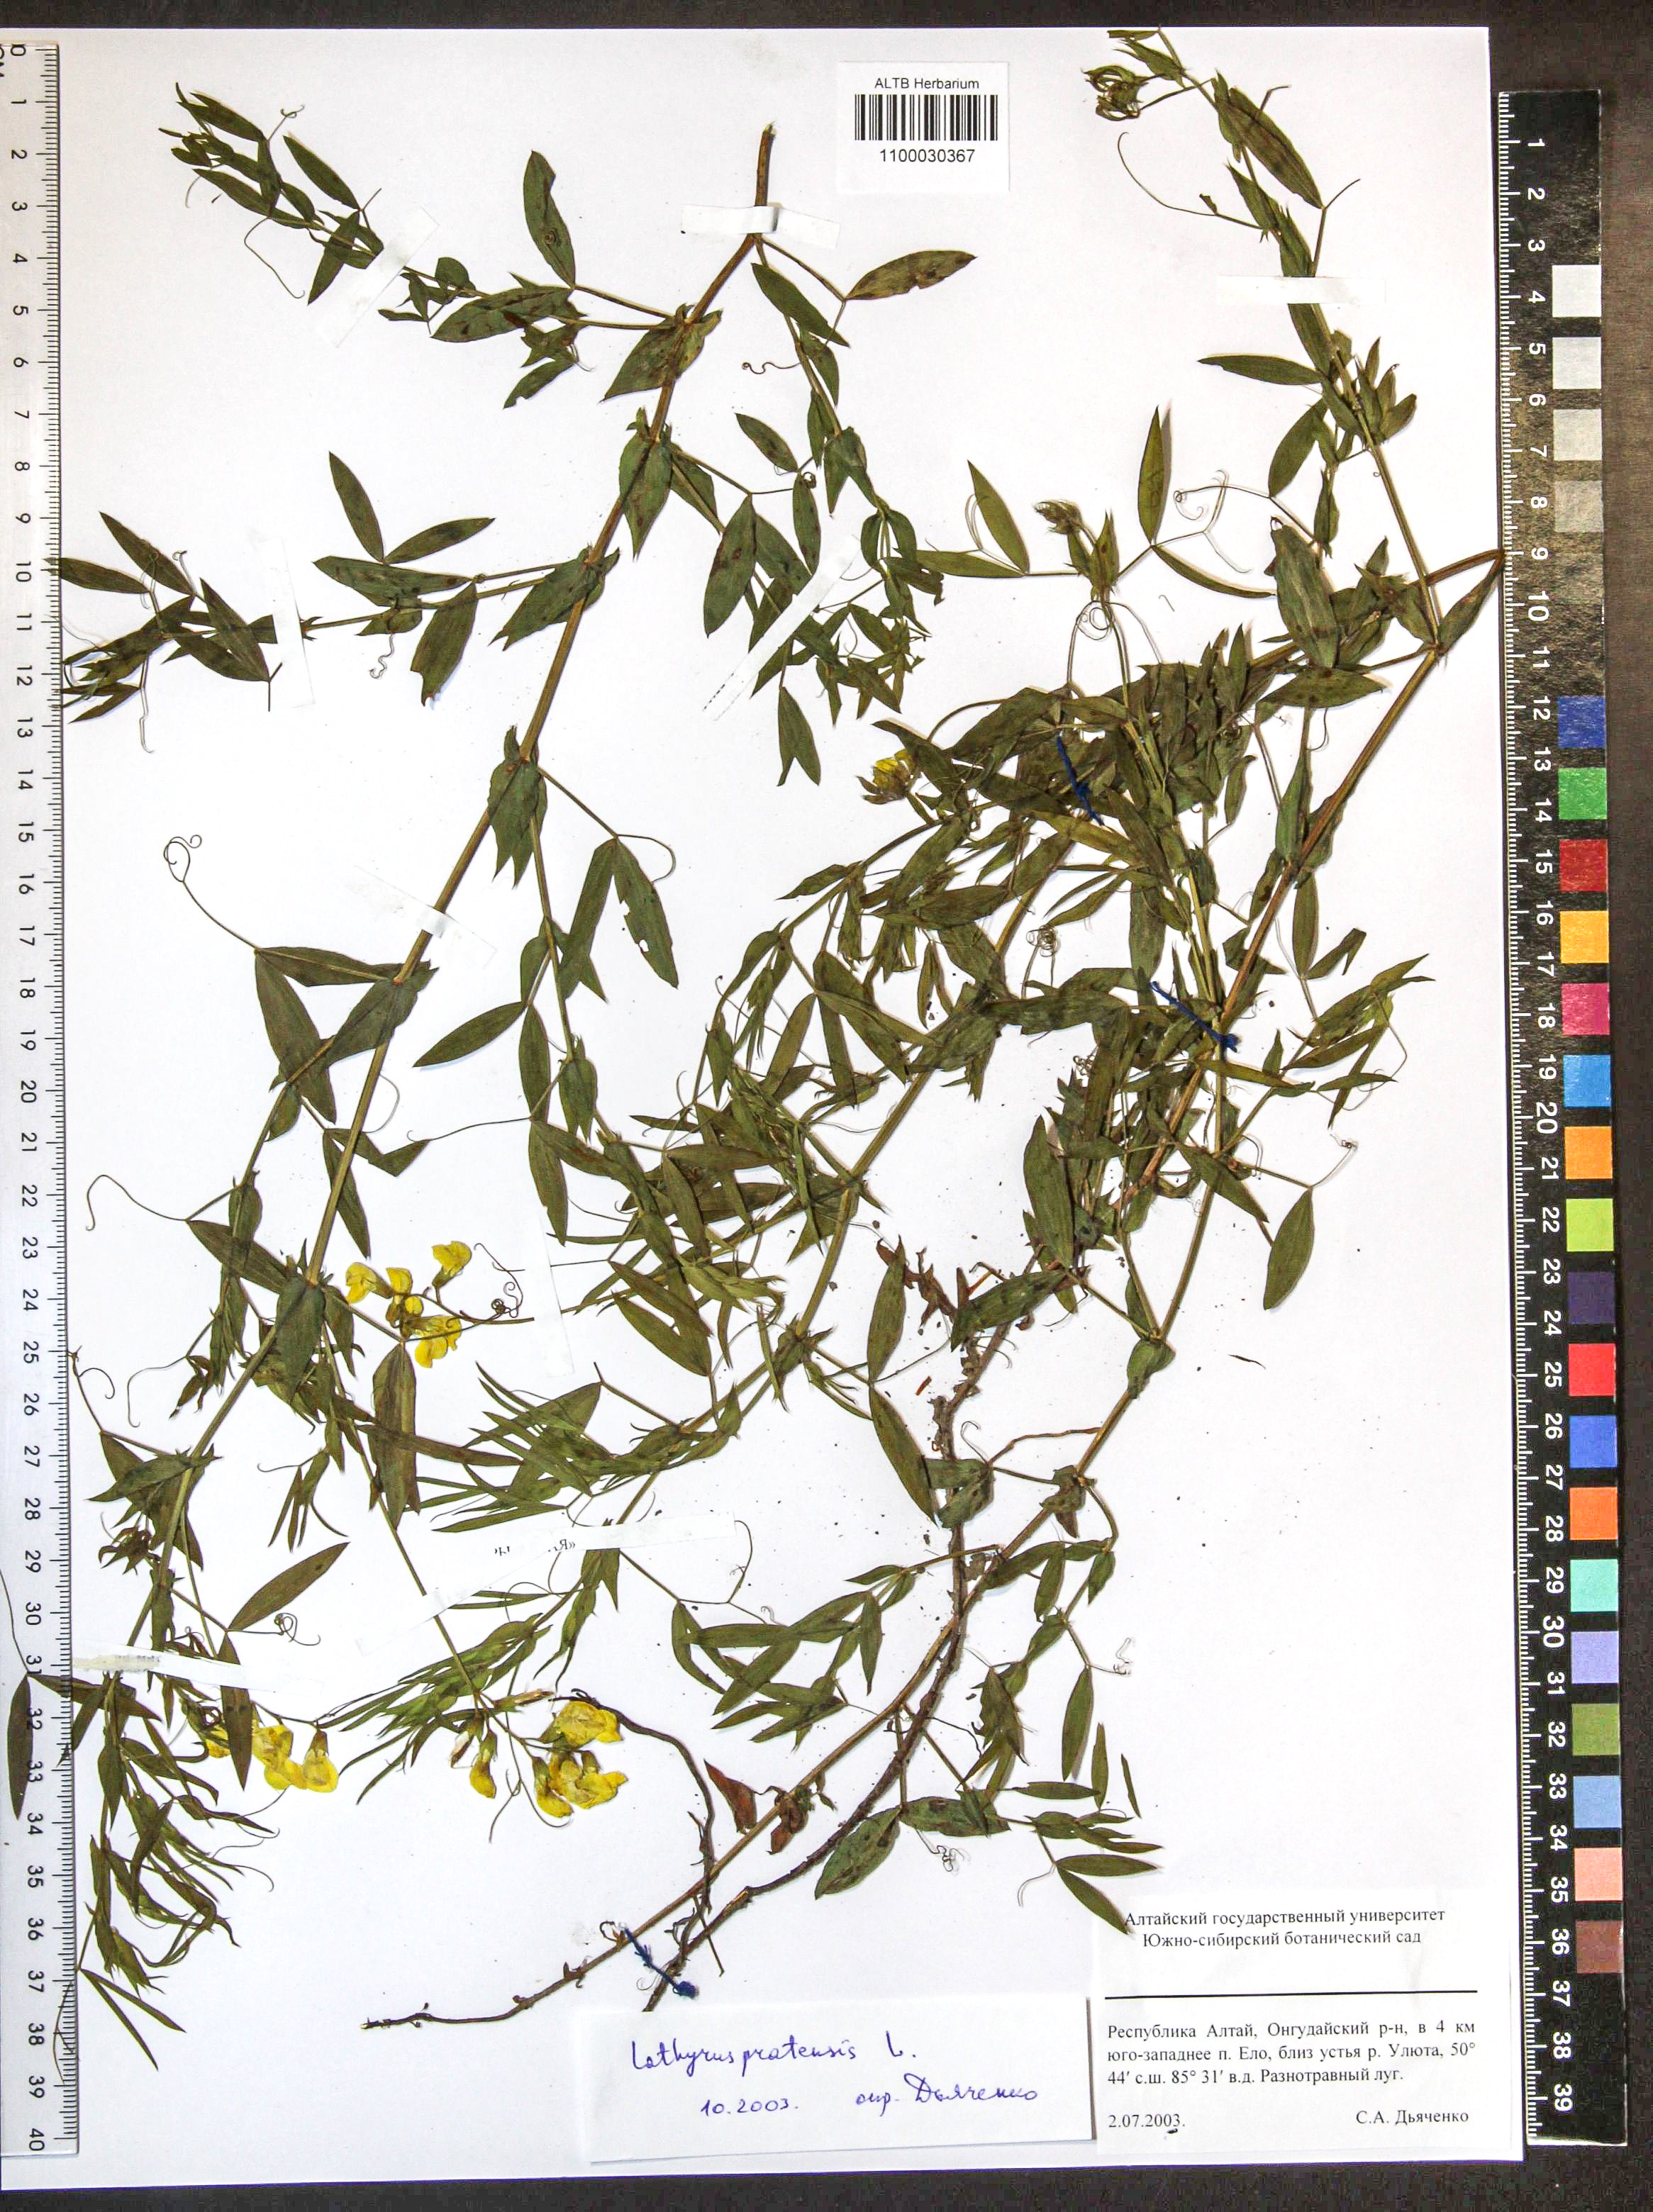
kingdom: Plantae
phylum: Tracheophyta
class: Magnoliopsida
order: Fabales
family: Fabaceae
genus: Lathyrus
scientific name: Lathyrus pratensis
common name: Meadow vetchling
